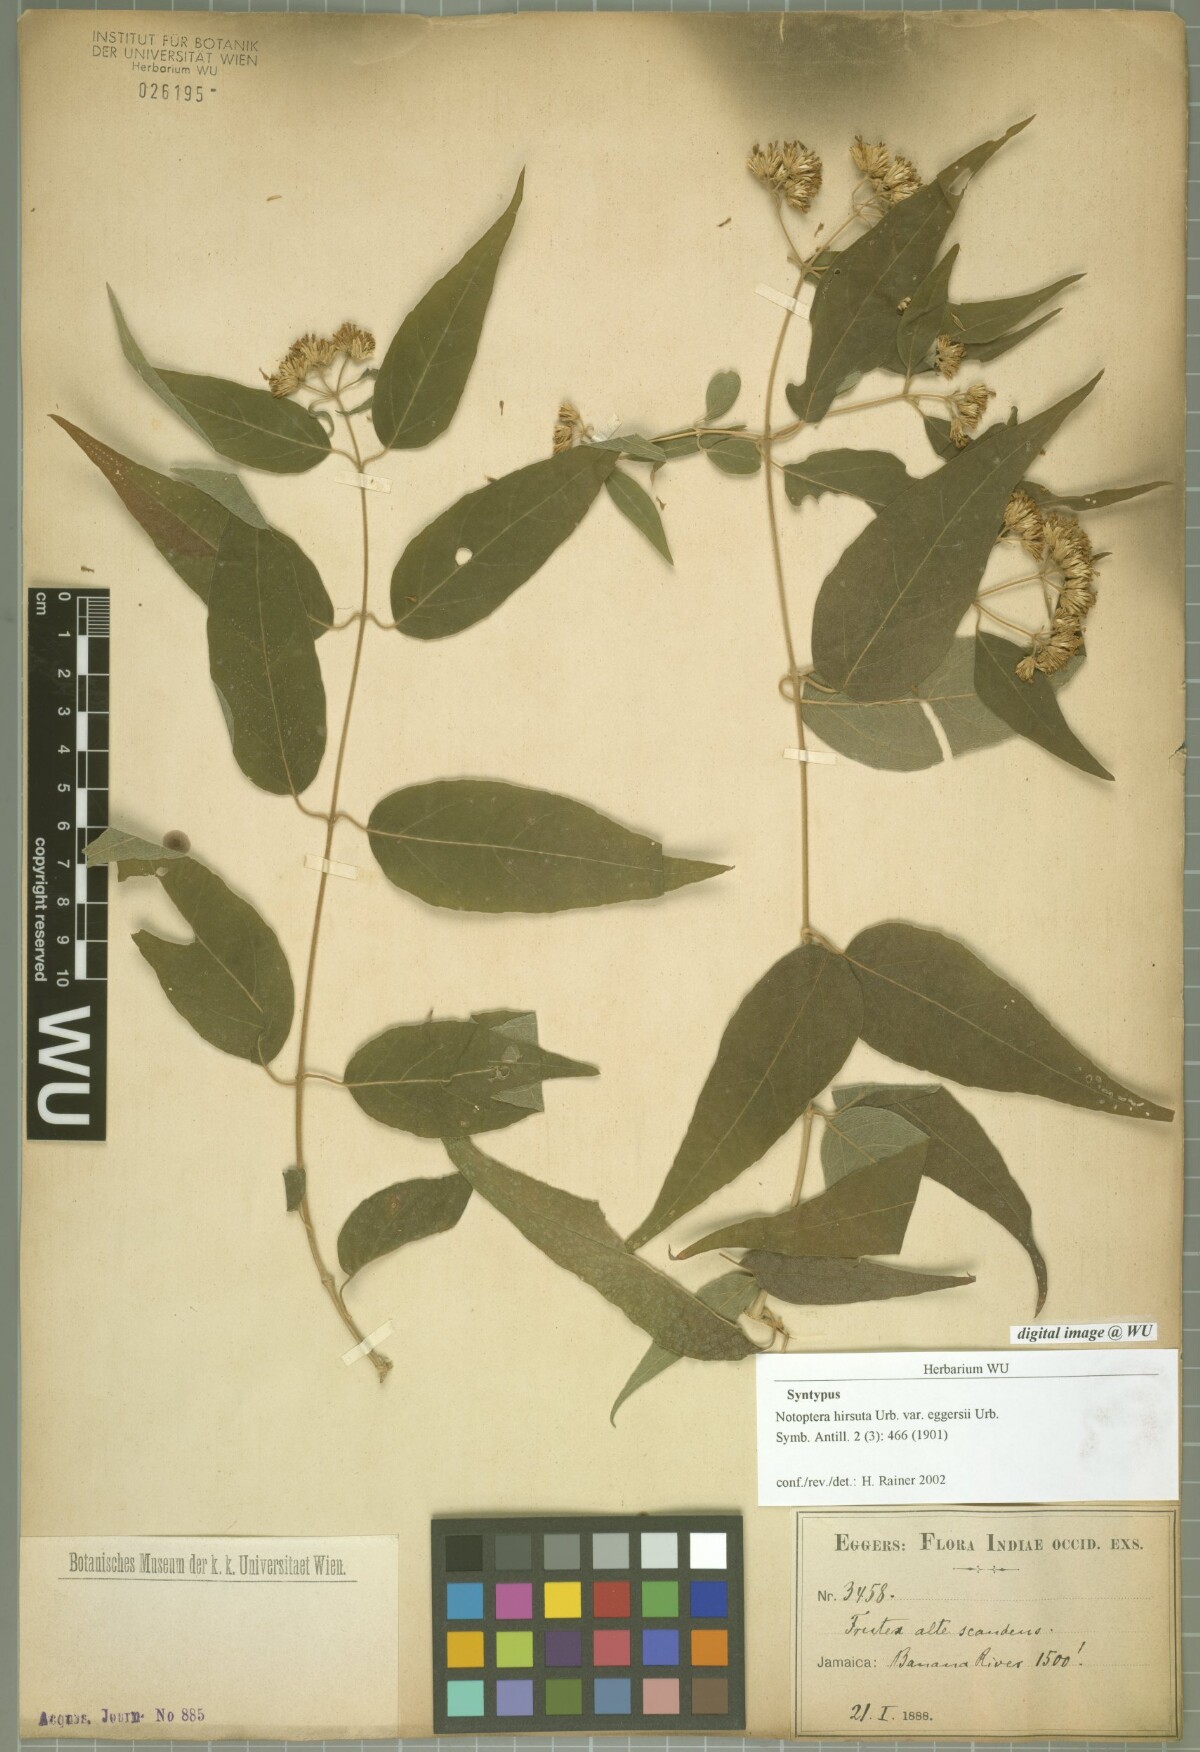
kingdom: Plantae
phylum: Tracheophyta
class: Magnoliopsida
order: Asterales
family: Asteraceae
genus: Otopappus
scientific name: Otopappus hirsutus
